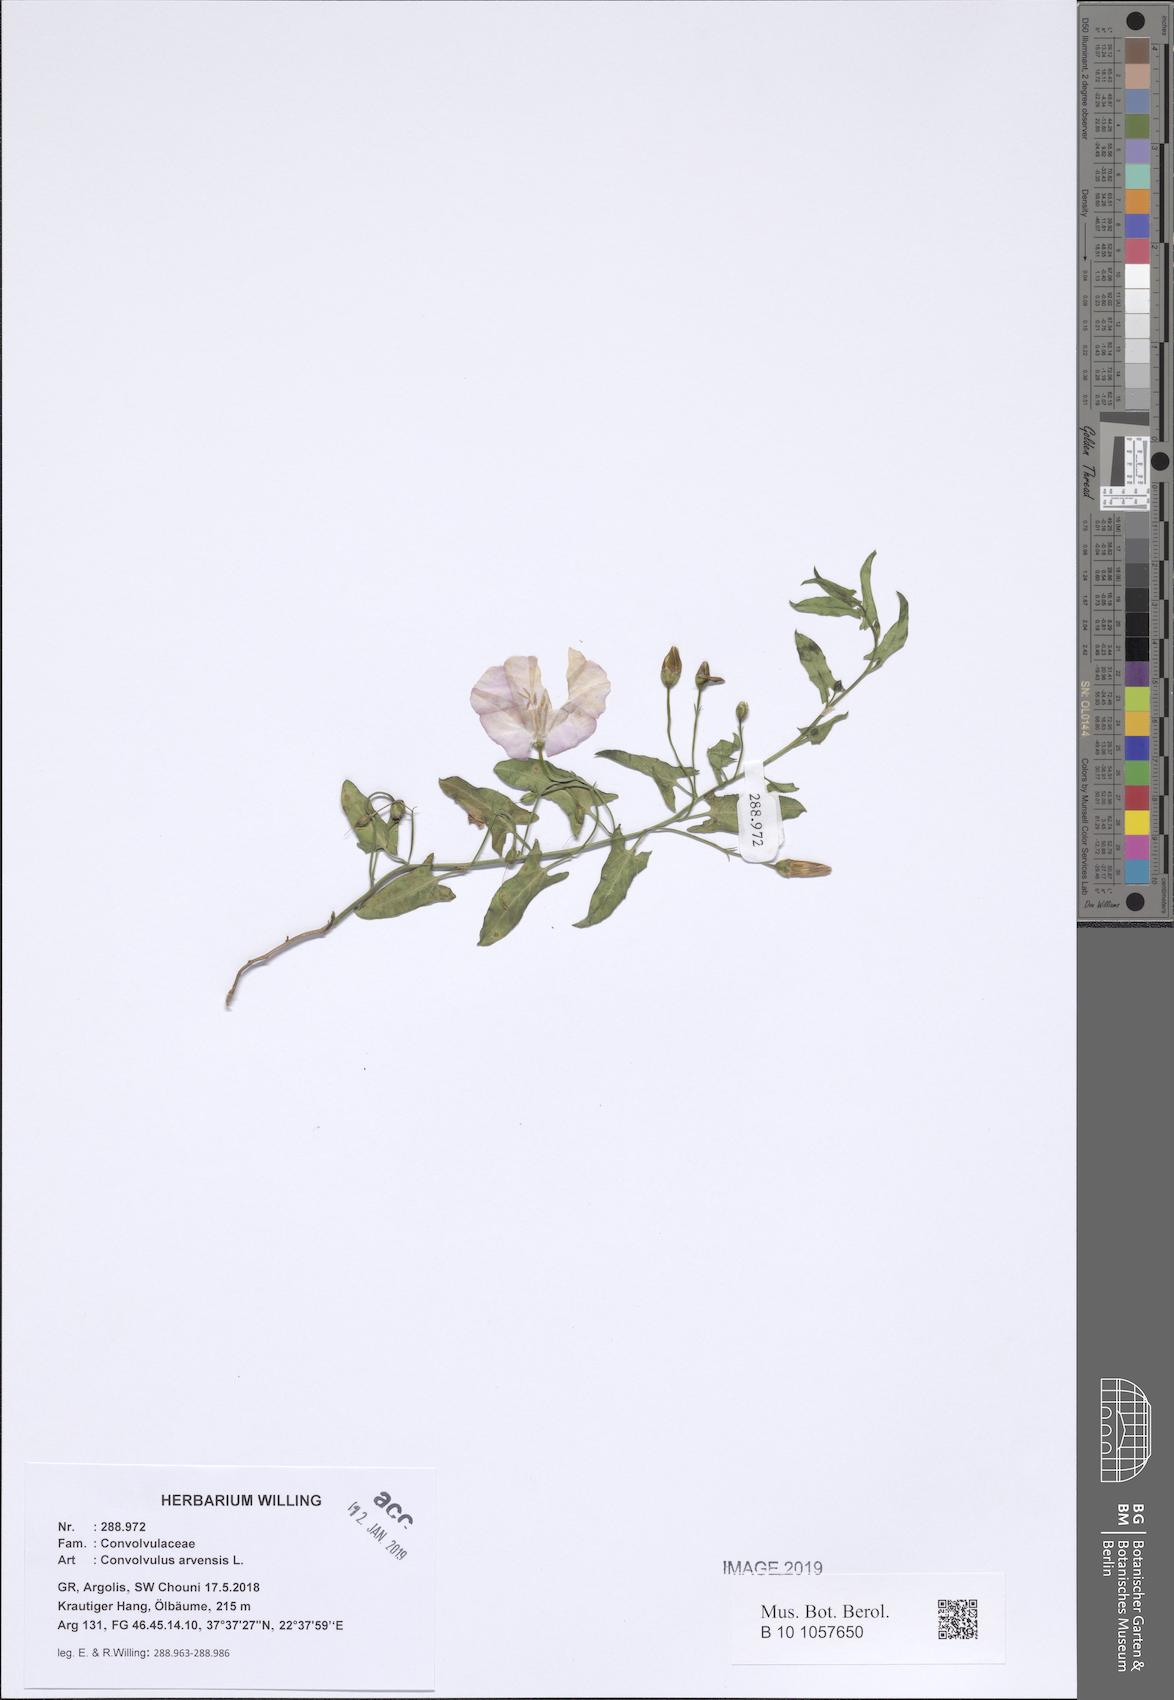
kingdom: Plantae
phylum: Tracheophyta
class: Magnoliopsida
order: Solanales
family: Convolvulaceae
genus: Convolvulus
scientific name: Convolvulus arvensis
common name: Field bindweed
